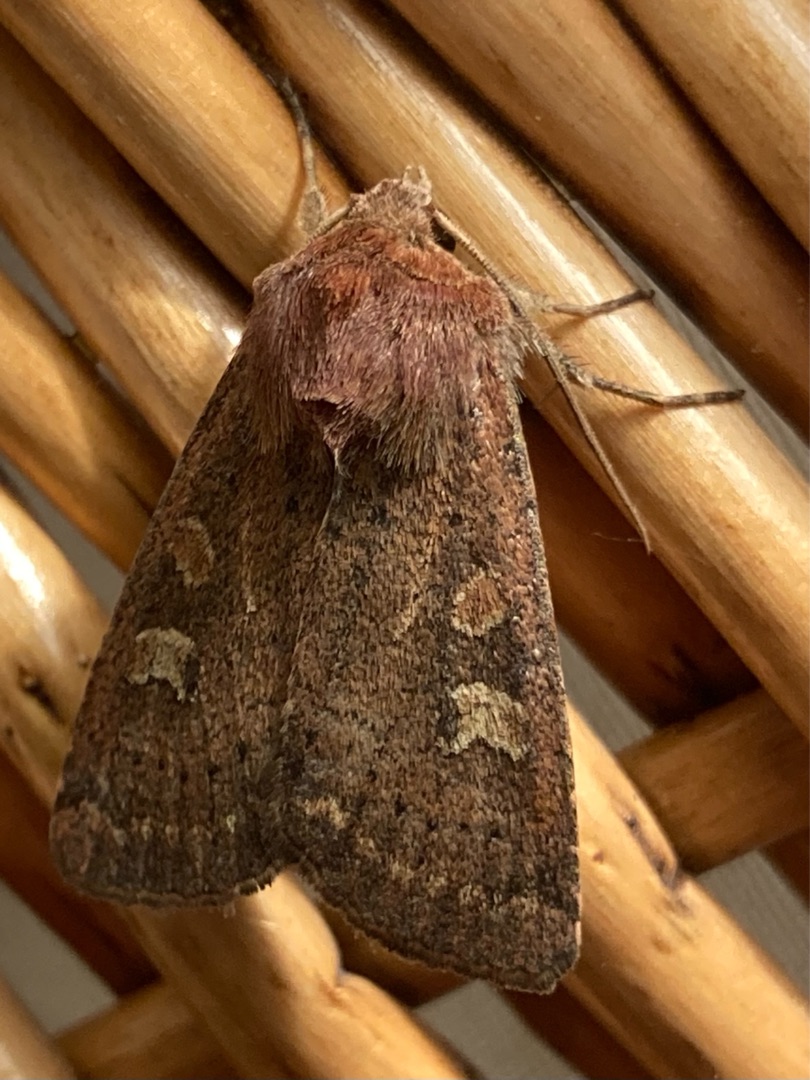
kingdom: Animalia
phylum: Arthropoda
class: Insecta
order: Lepidoptera
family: Noctuidae
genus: Xestia
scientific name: Xestia xanthographa
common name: Gulmærket glansugle
